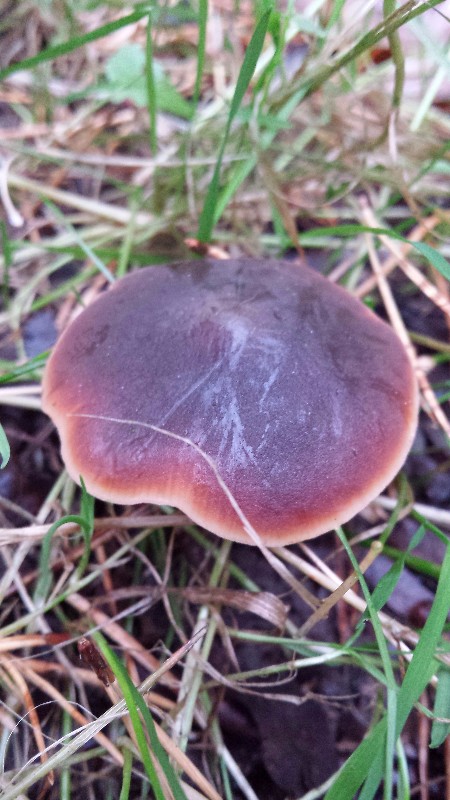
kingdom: Fungi
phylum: Basidiomycota
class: Agaricomycetes
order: Agaricales
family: Macrocystidiaceae
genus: Macrocystidia
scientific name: Macrocystidia cucumis
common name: agurkehat
